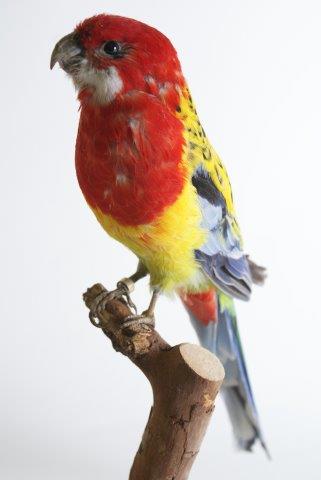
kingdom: Animalia
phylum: Chordata
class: Aves
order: Psittaciformes
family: Psittacidae
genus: Platycercus
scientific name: Platycercus eximius
